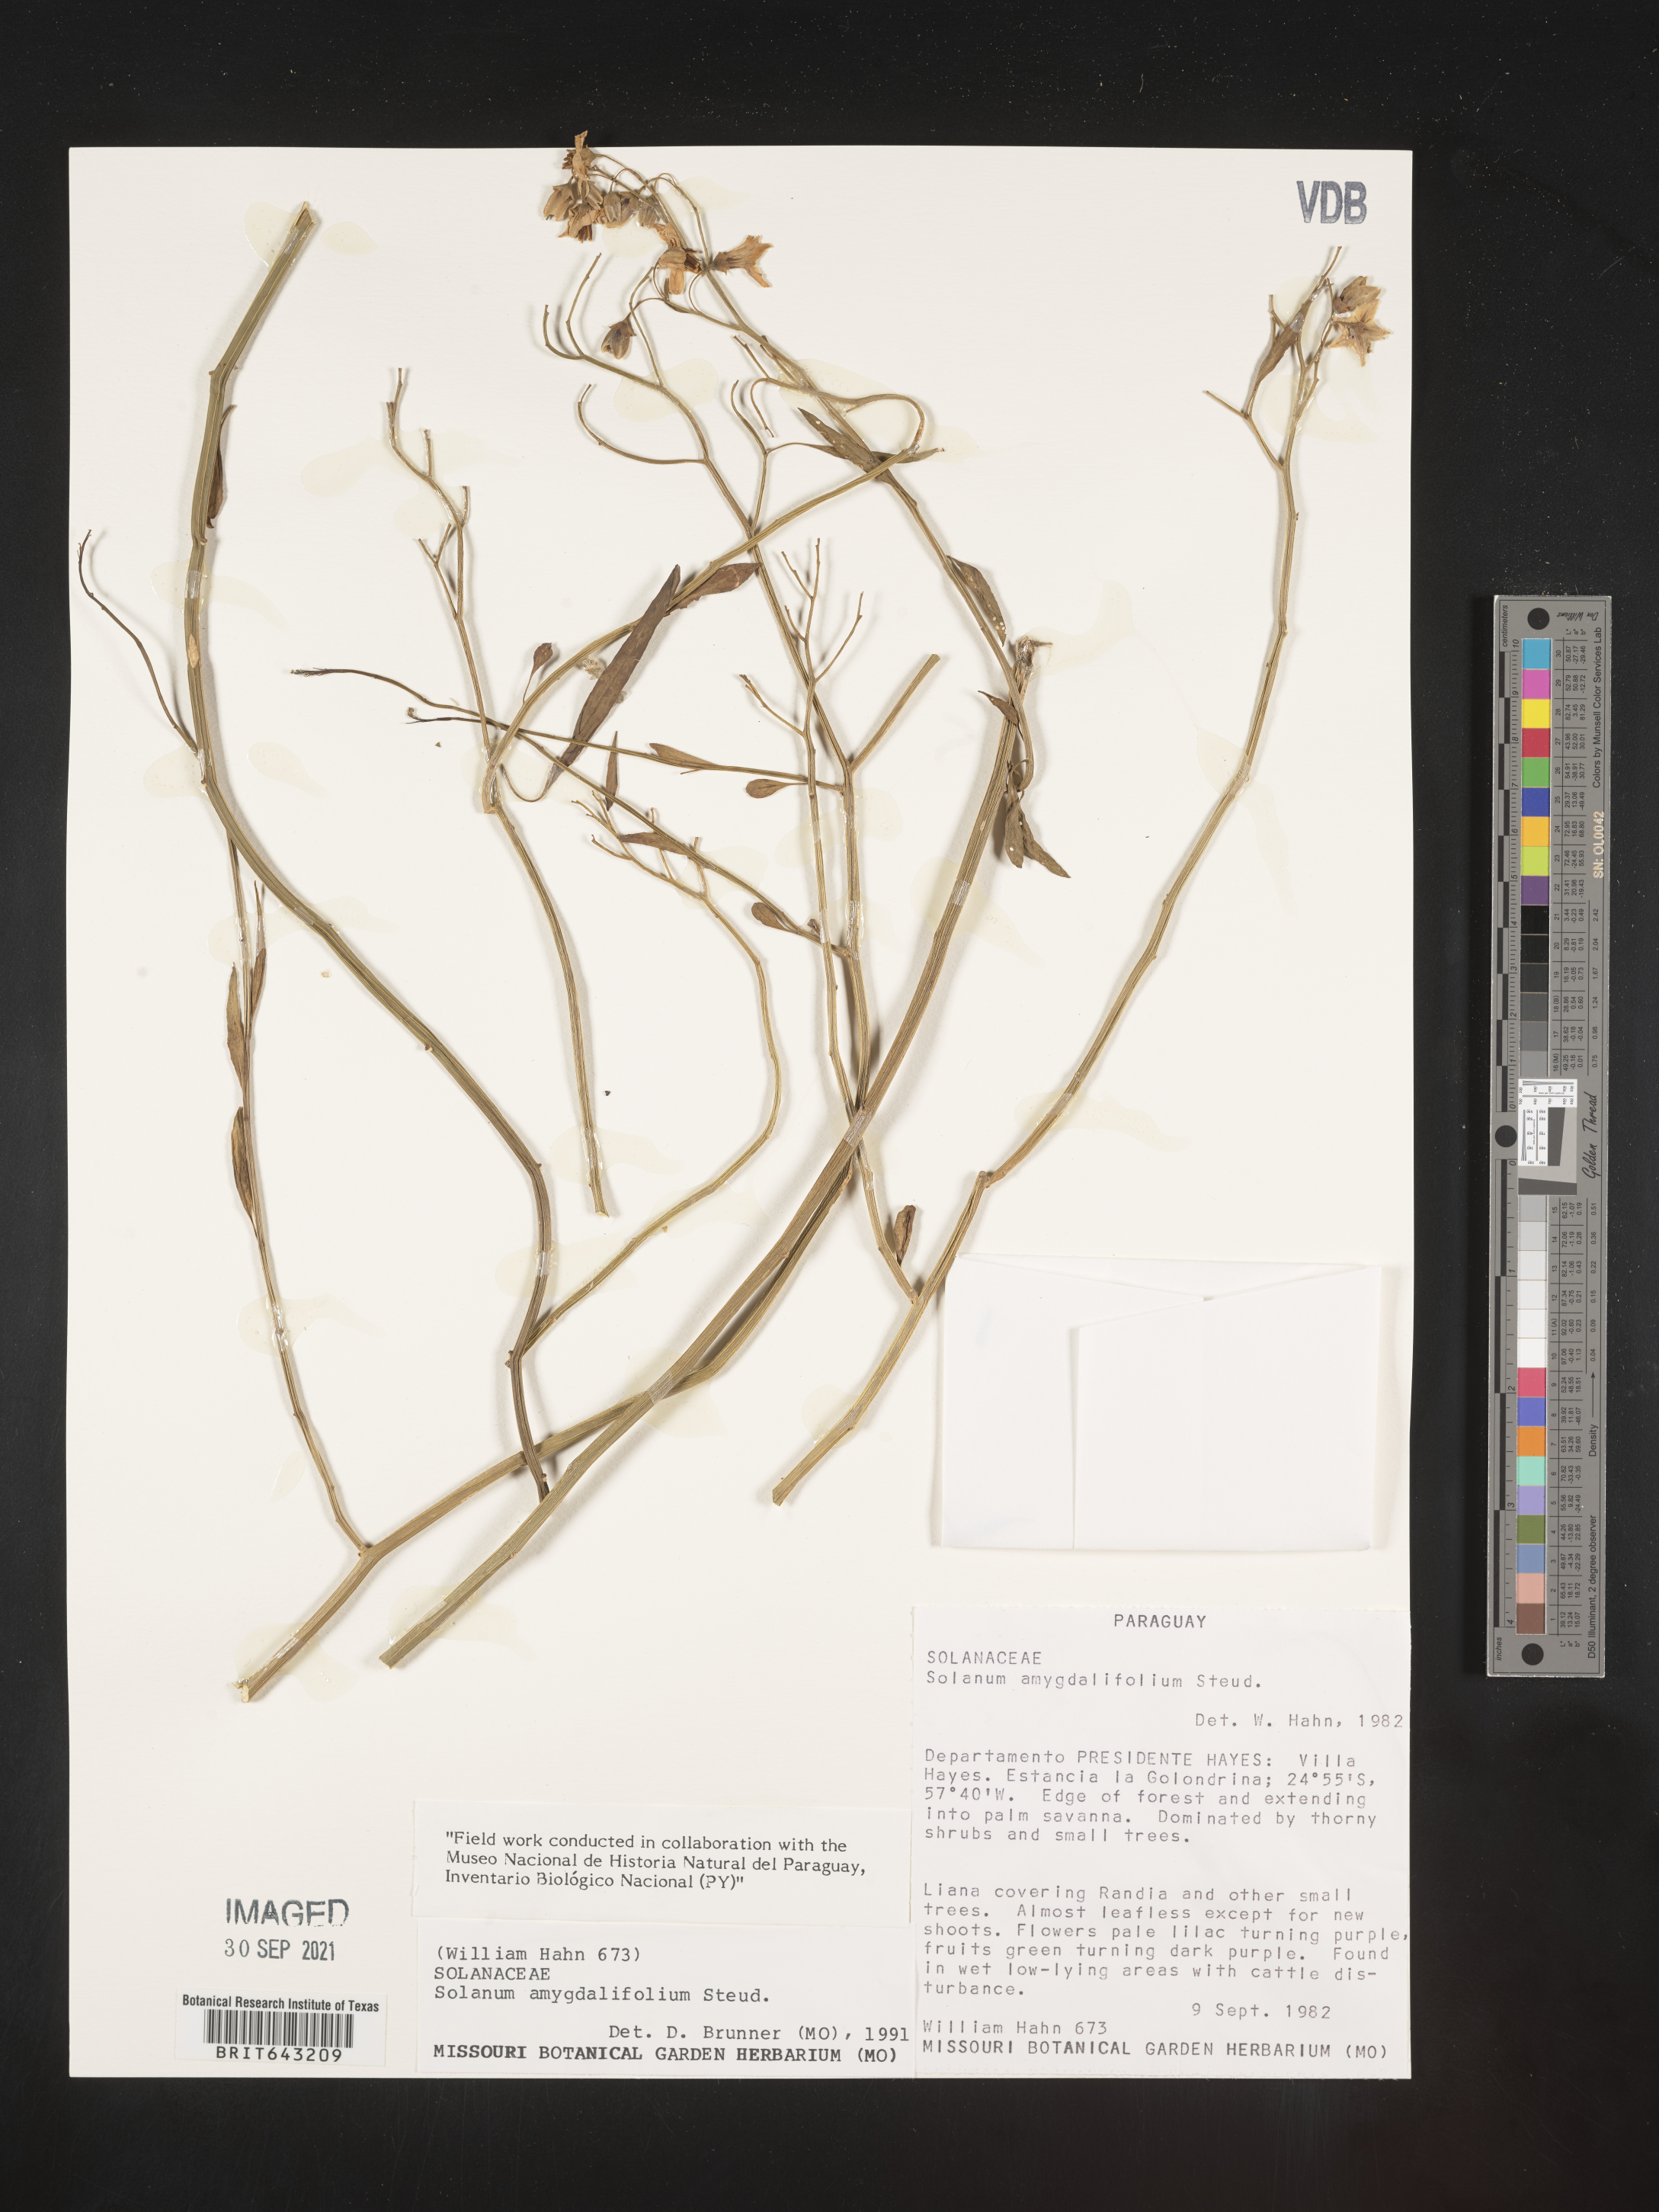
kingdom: Plantae
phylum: Tracheophyta
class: Magnoliopsida
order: Solanales
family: Solanaceae
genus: Solanum
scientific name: Solanum
